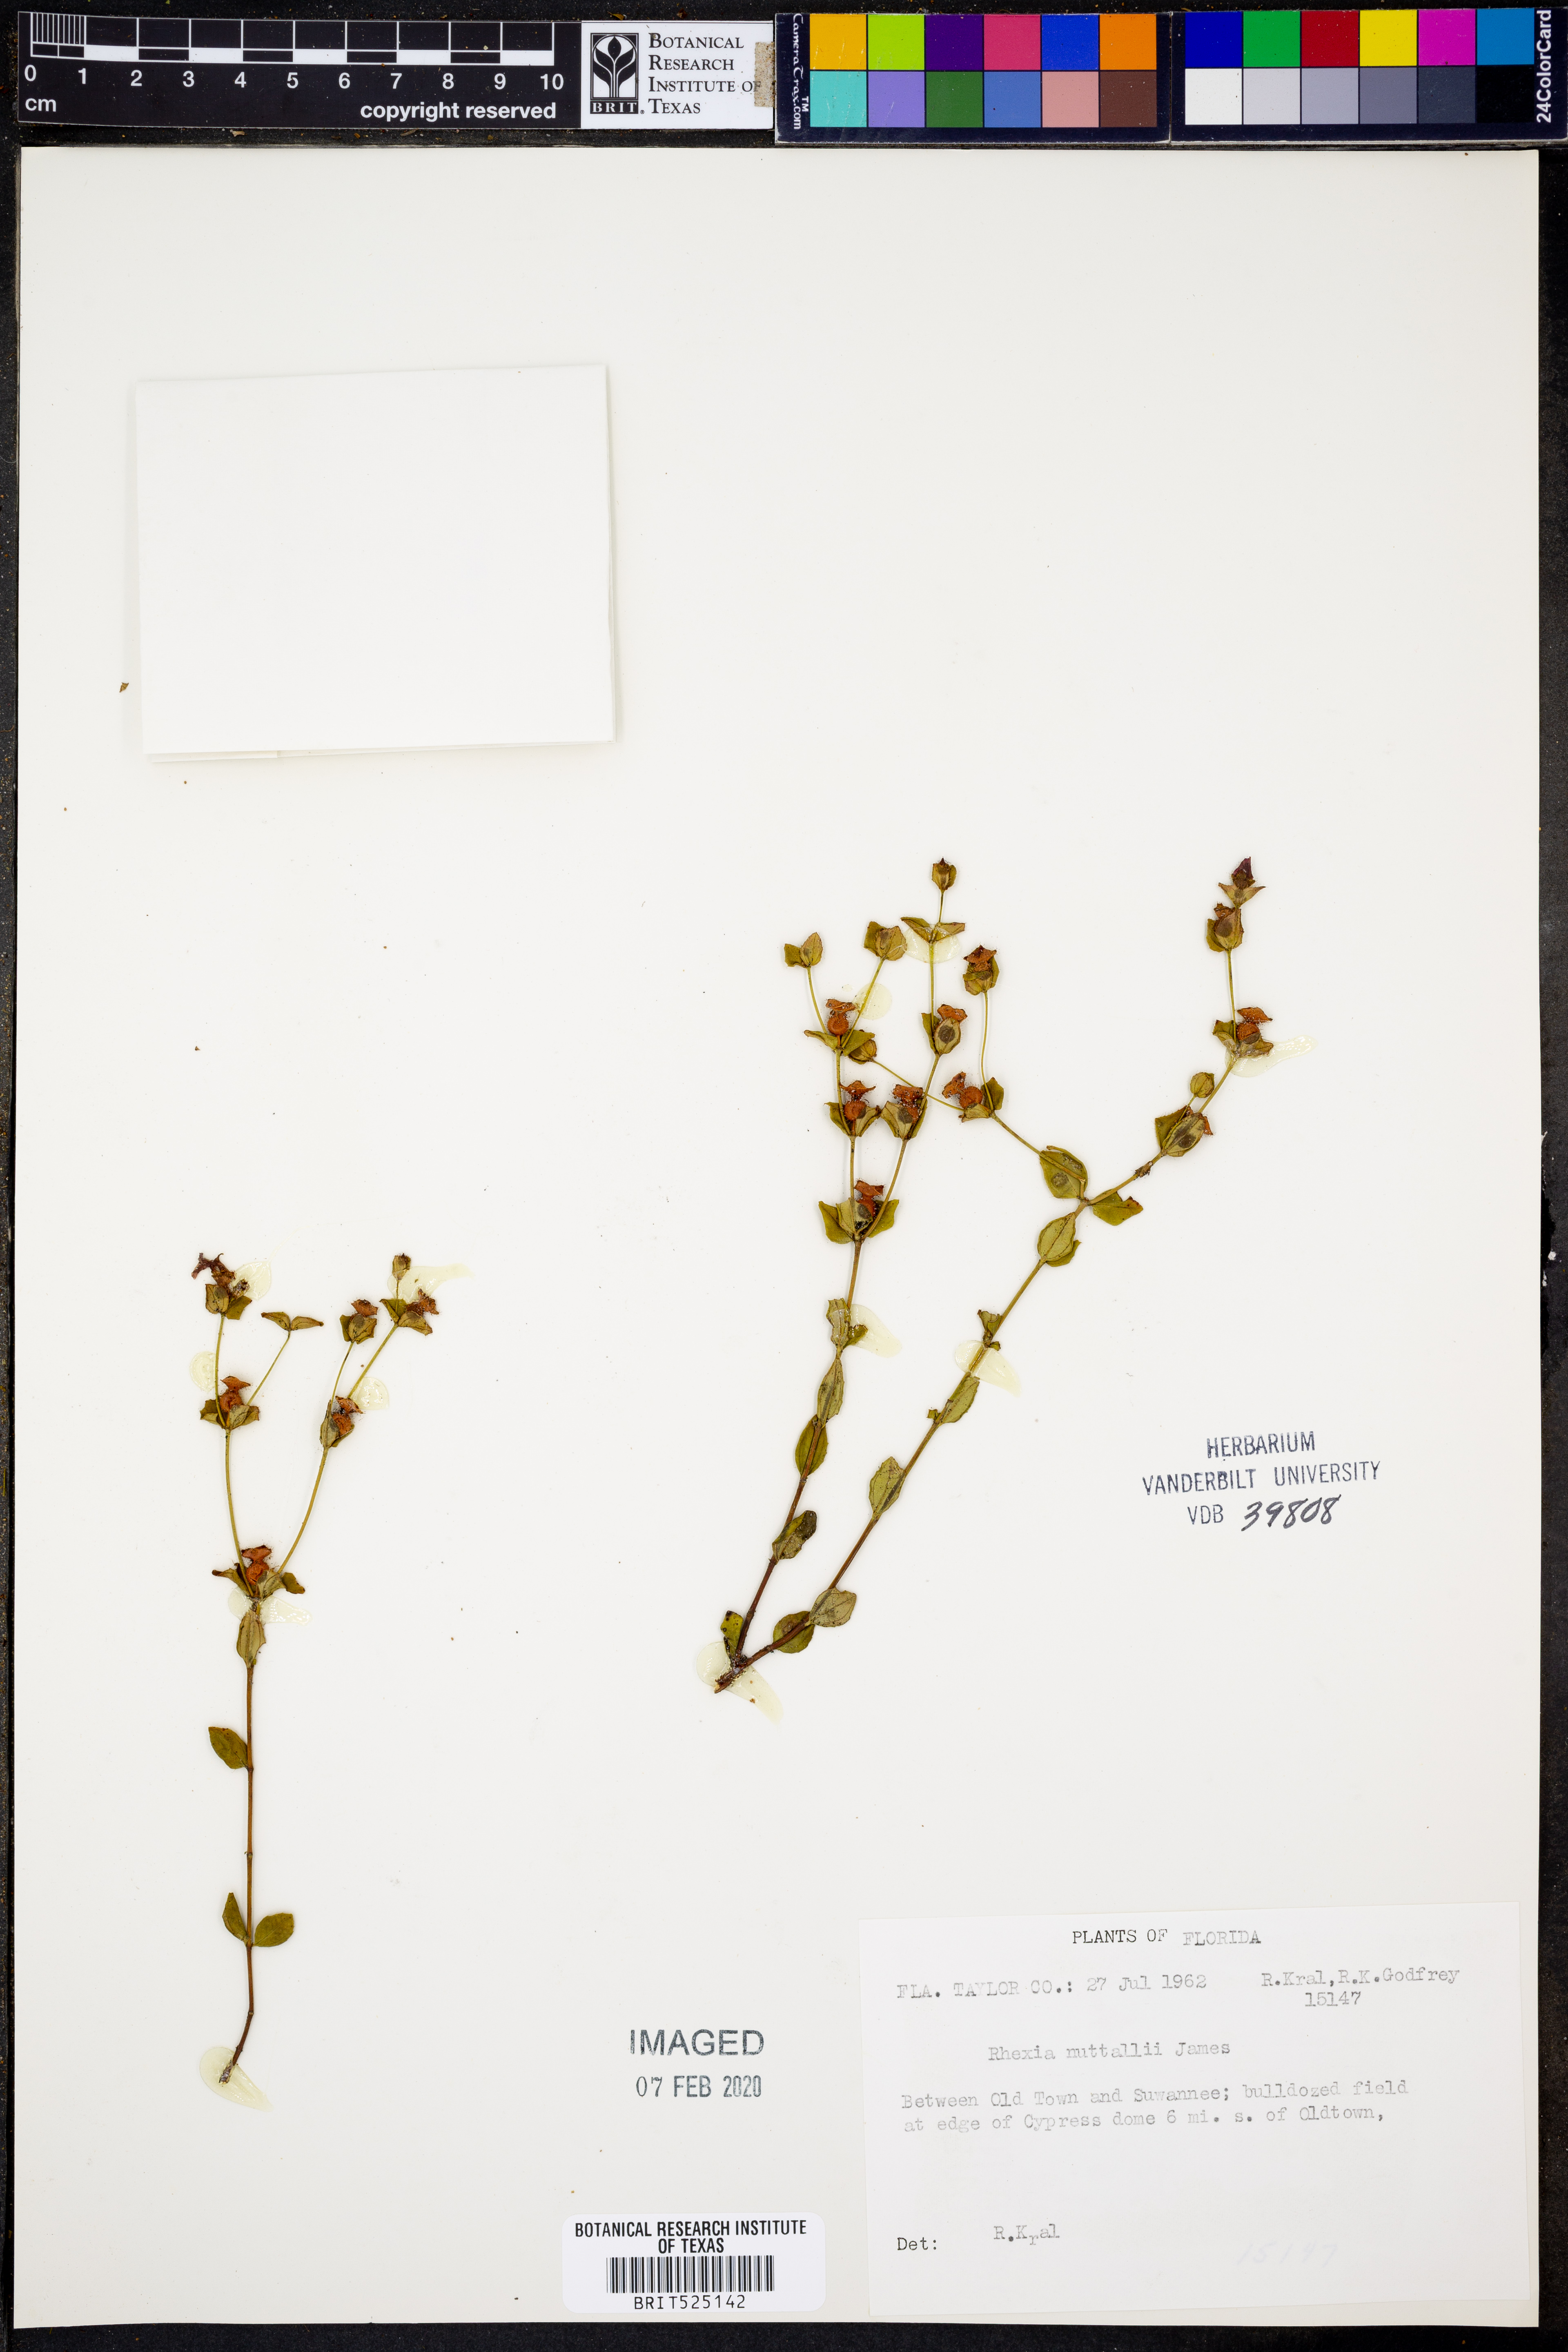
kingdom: Plantae
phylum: Tracheophyta
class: Magnoliopsida
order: Myrtales
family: Melastomataceae
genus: Rhexia
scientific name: Rhexia nuttallii
